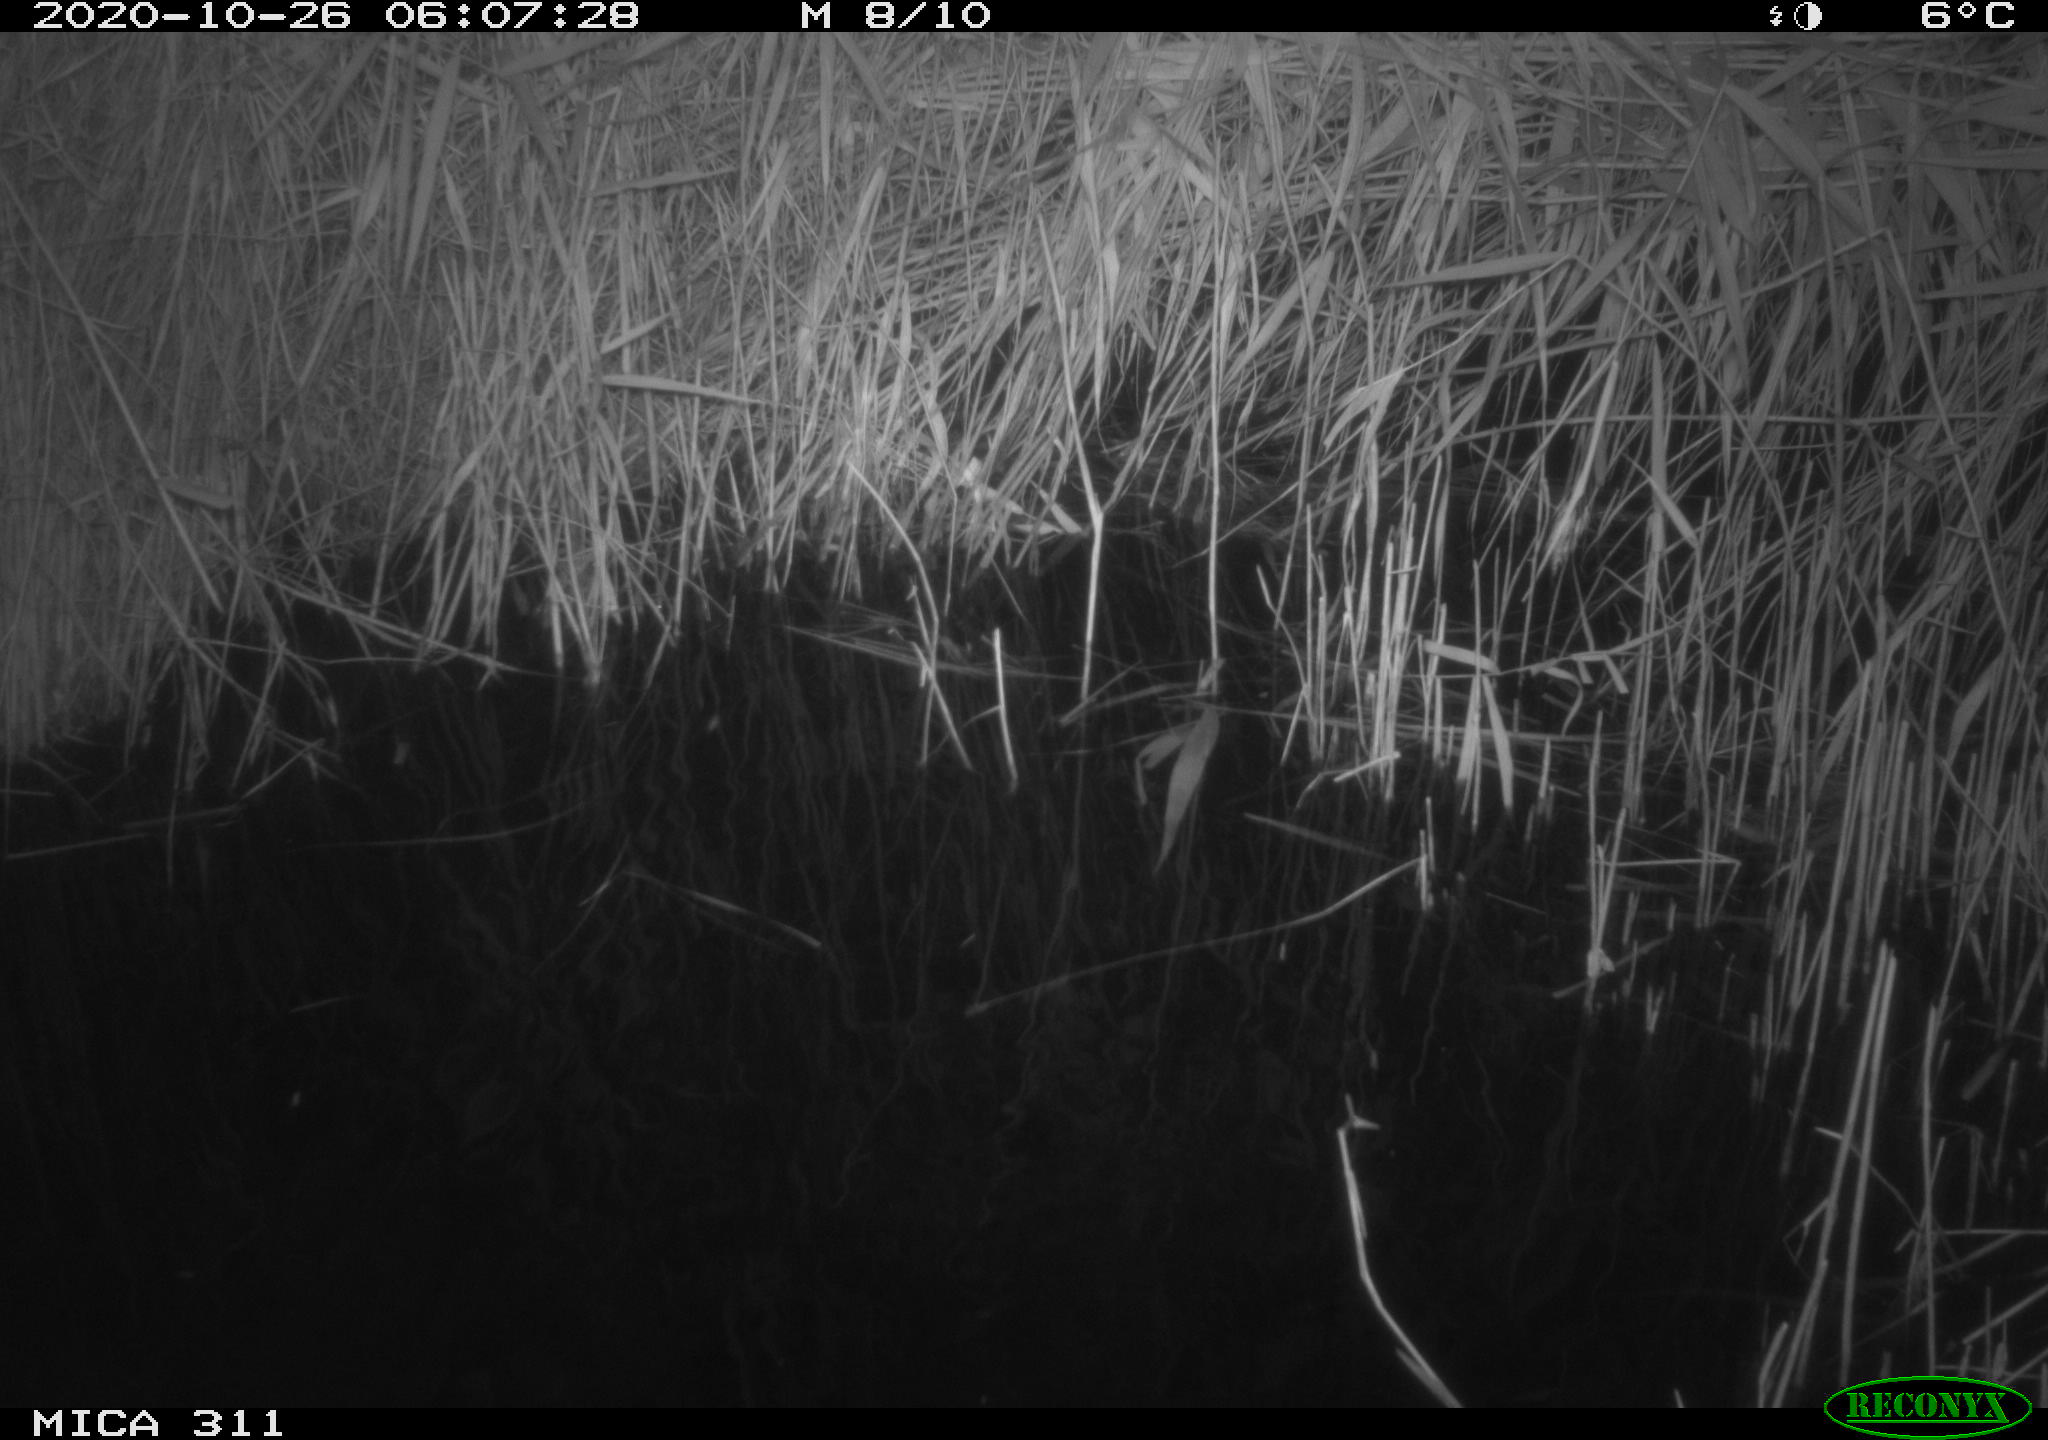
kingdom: Animalia
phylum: Chordata
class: Mammalia
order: Rodentia
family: Muridae
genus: Rattus
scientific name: Rattus norvegicus
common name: Brown rat
